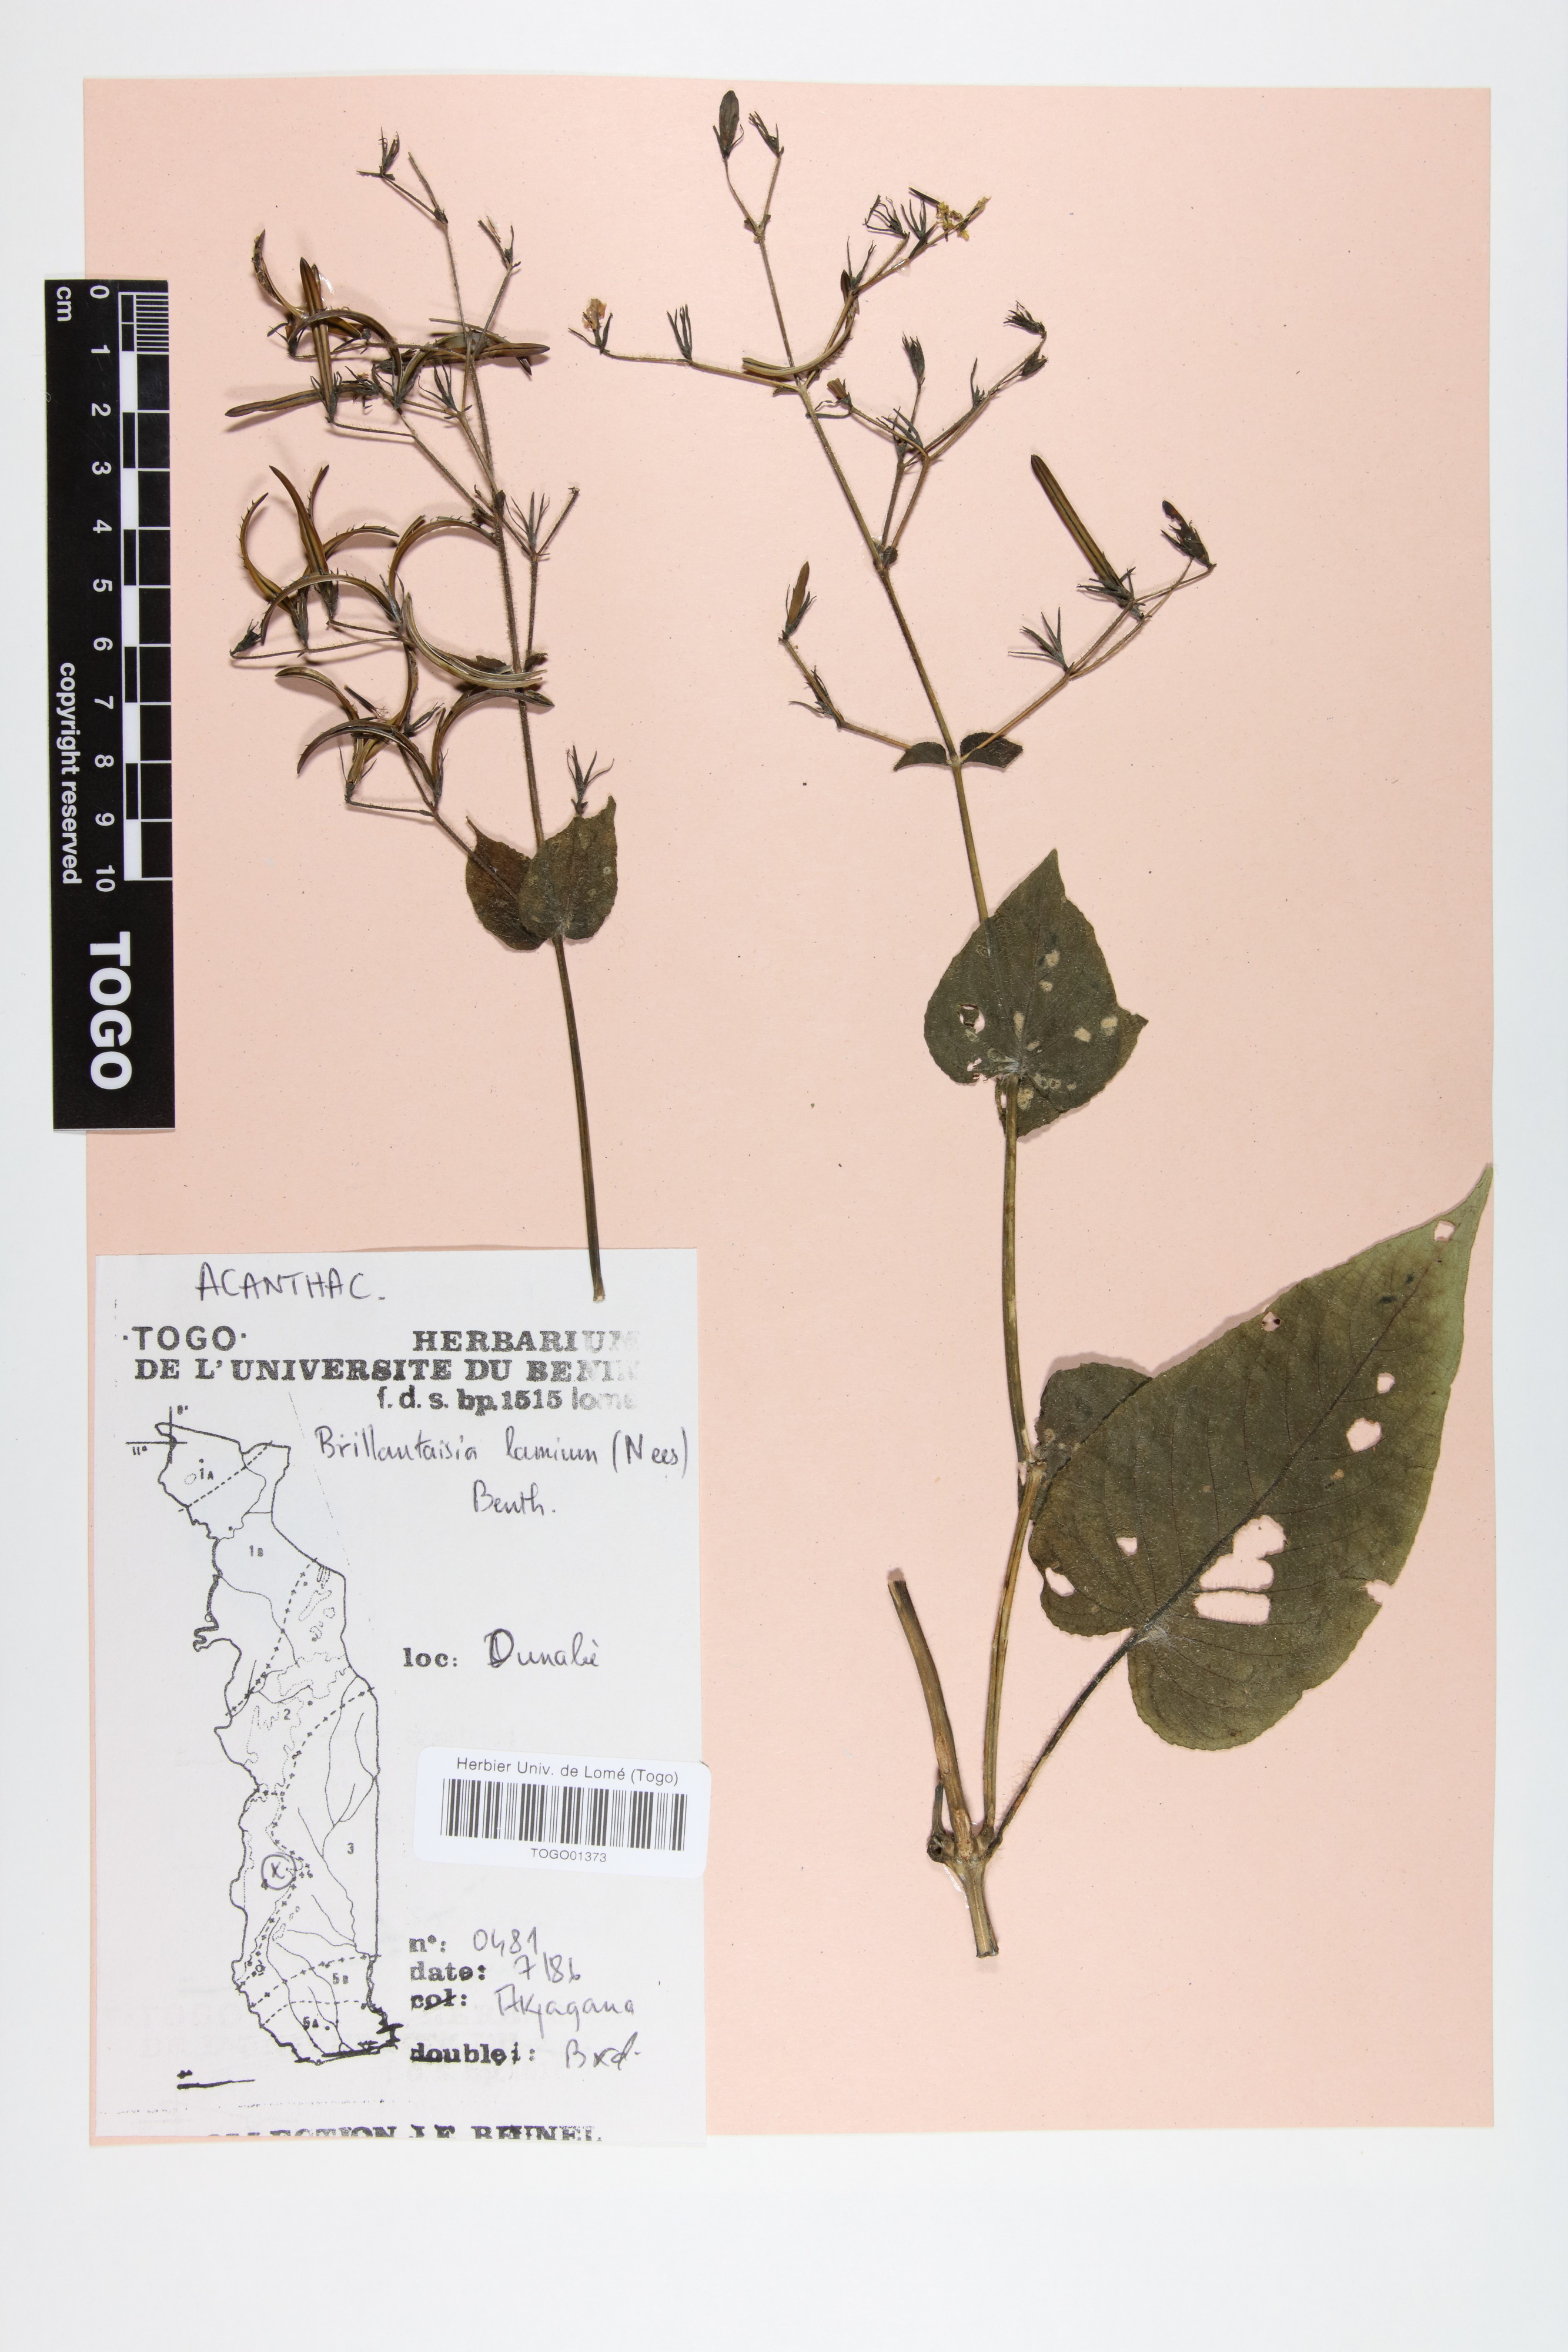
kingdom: Plantae
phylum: Tracheophyta
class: Magnoliopsida
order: Lamiales
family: Acanthaceae
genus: Brillantaisia
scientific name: Brillantaisia lamium
